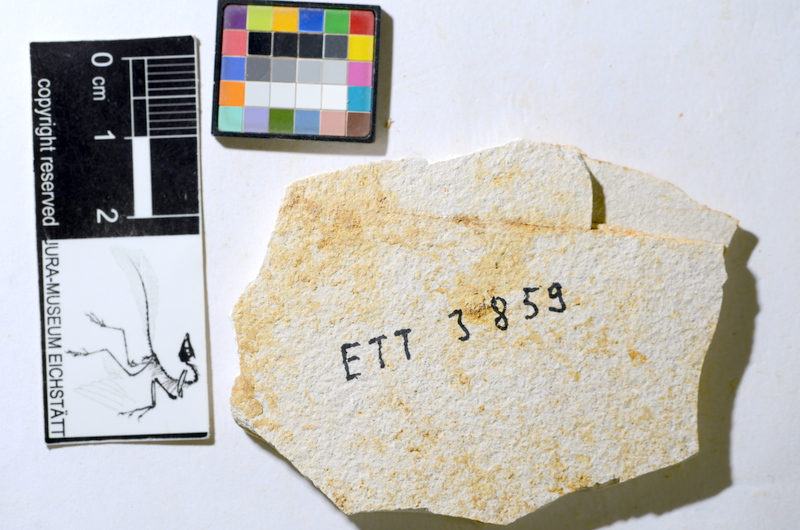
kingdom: Animalia
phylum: Chordata
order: Salmoniformes
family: Orthogonikleithridae
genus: Orthogonikleithrus
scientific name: Orthogonikleithrus hoelli
